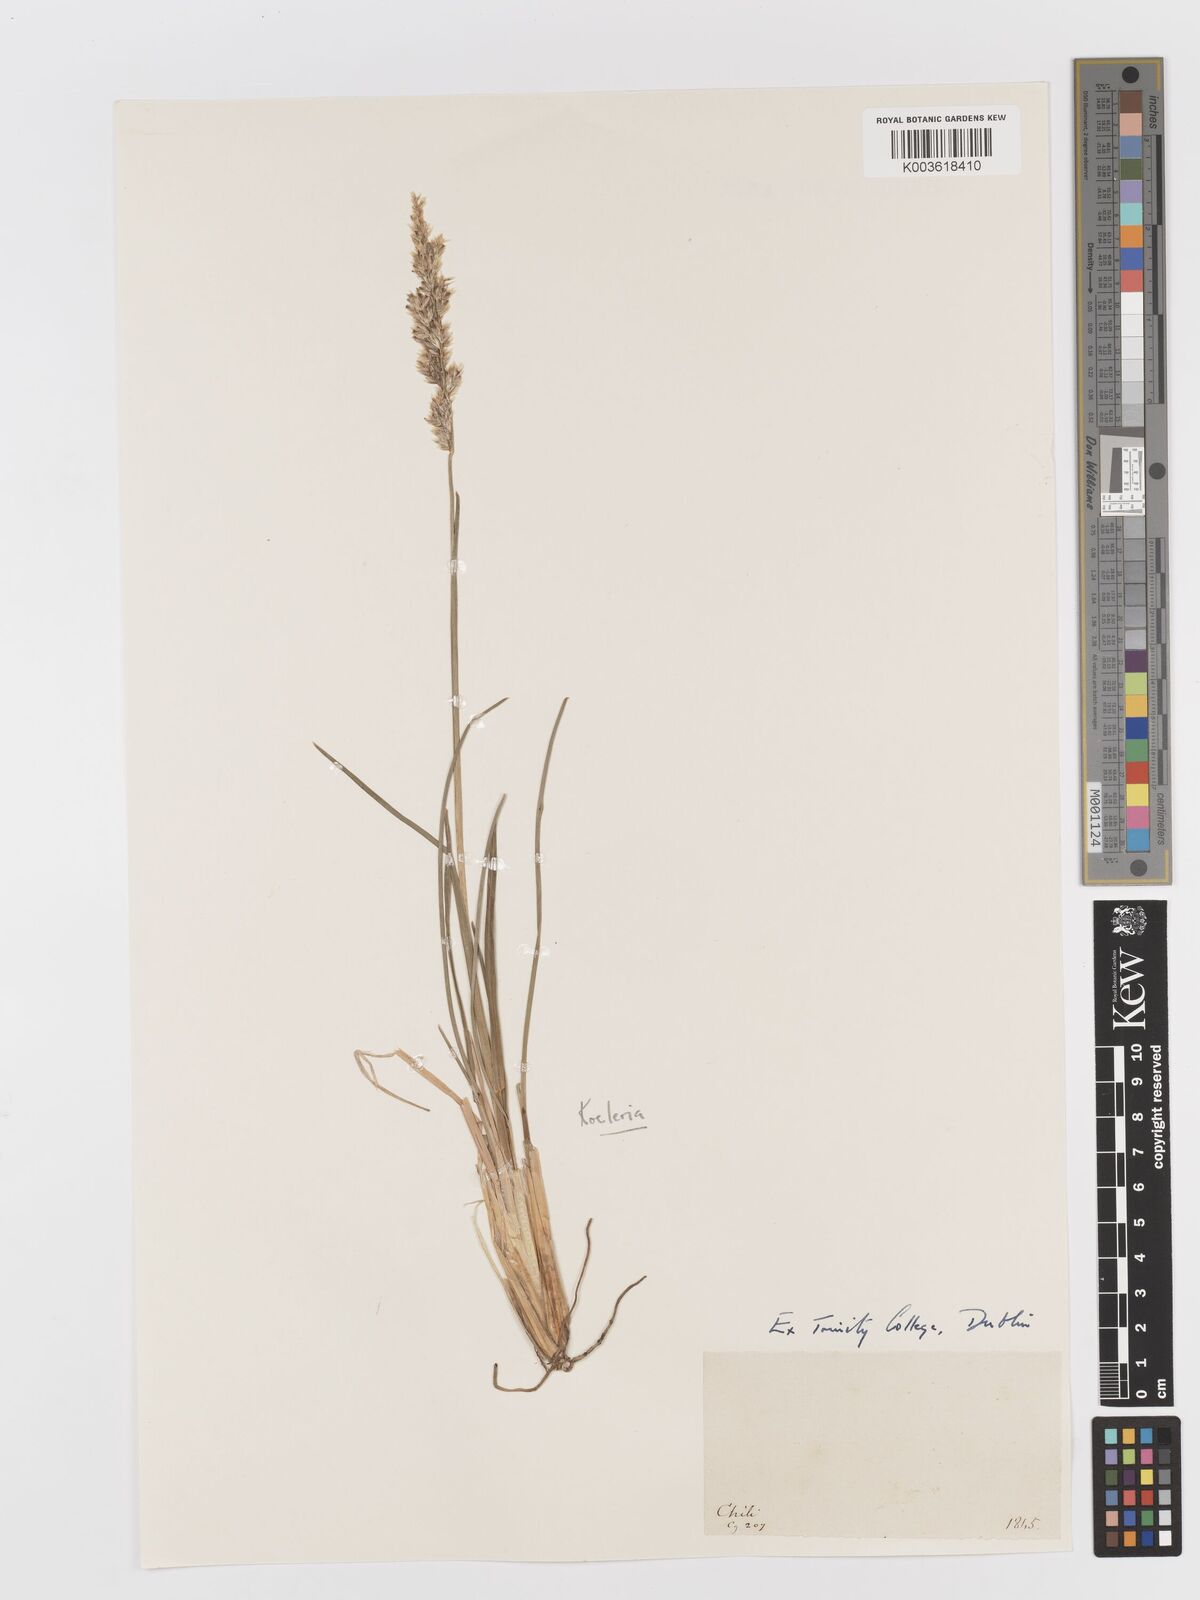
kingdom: Plantae
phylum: Tracheophyta
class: Liliopsida
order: Poales
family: Poaceae
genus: Koeleria
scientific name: Koeleria
